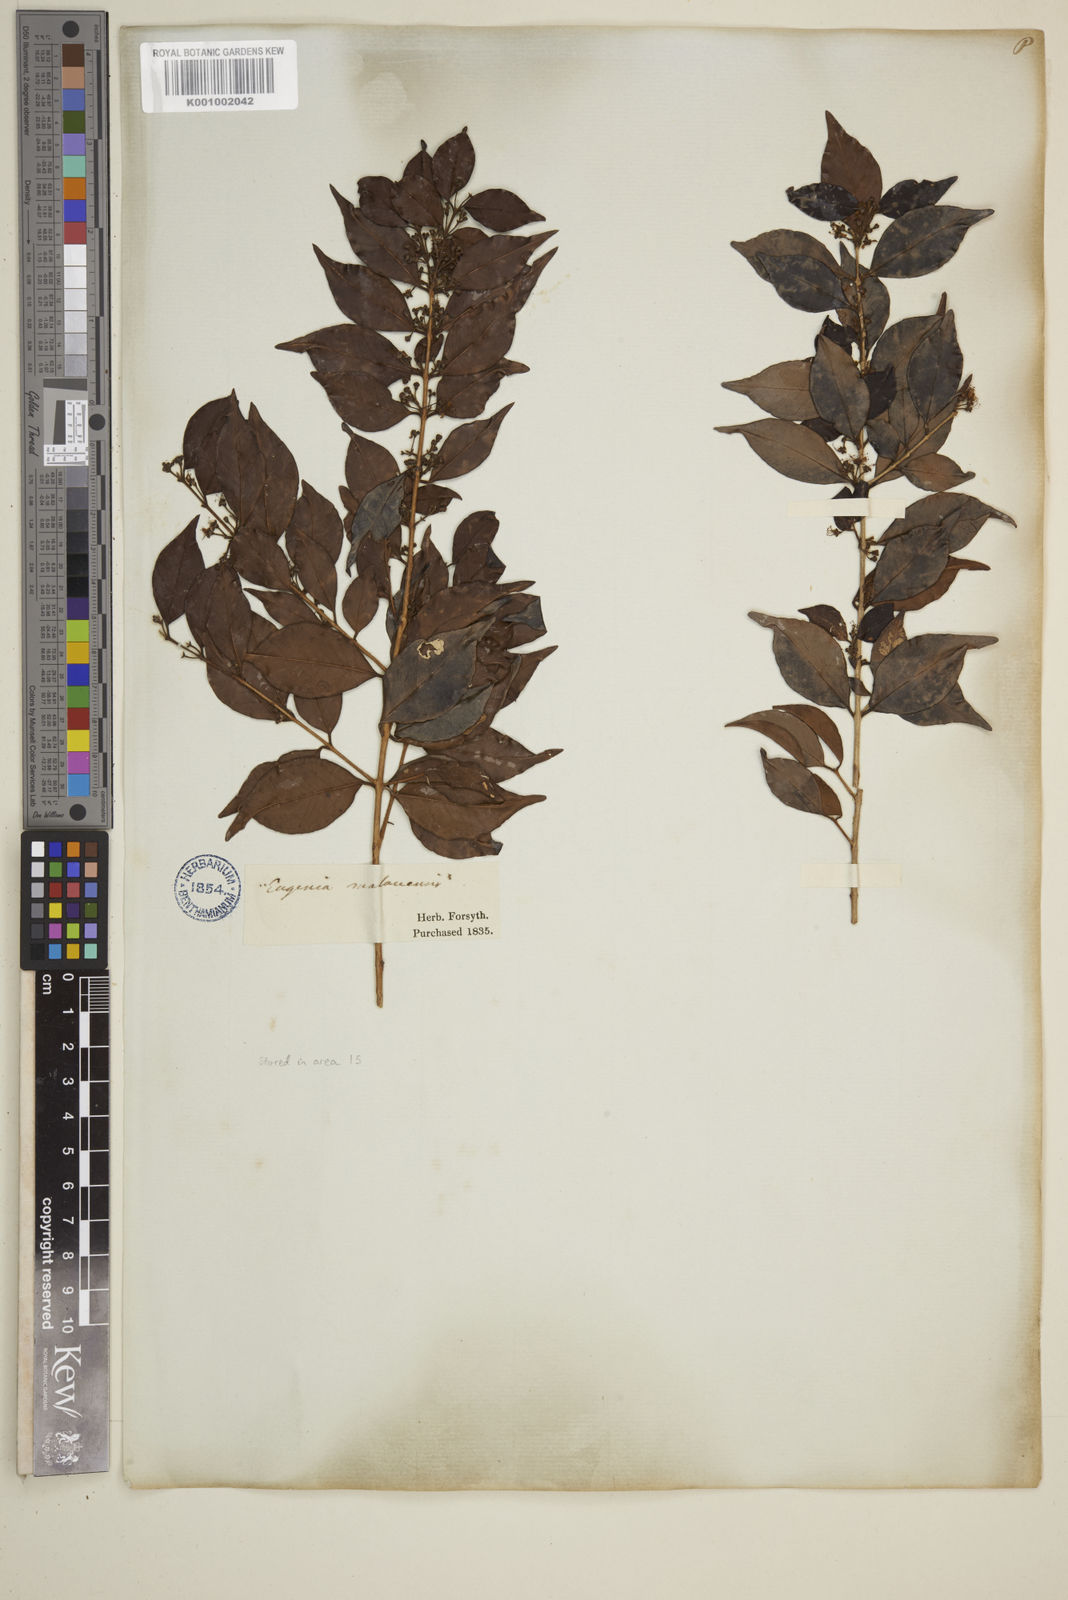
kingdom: Plantae
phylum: Tracheophyta
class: Magnoliopsida
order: Myrtales
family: Myrtaceae
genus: Eugenia
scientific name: Eugenia buxifolia
